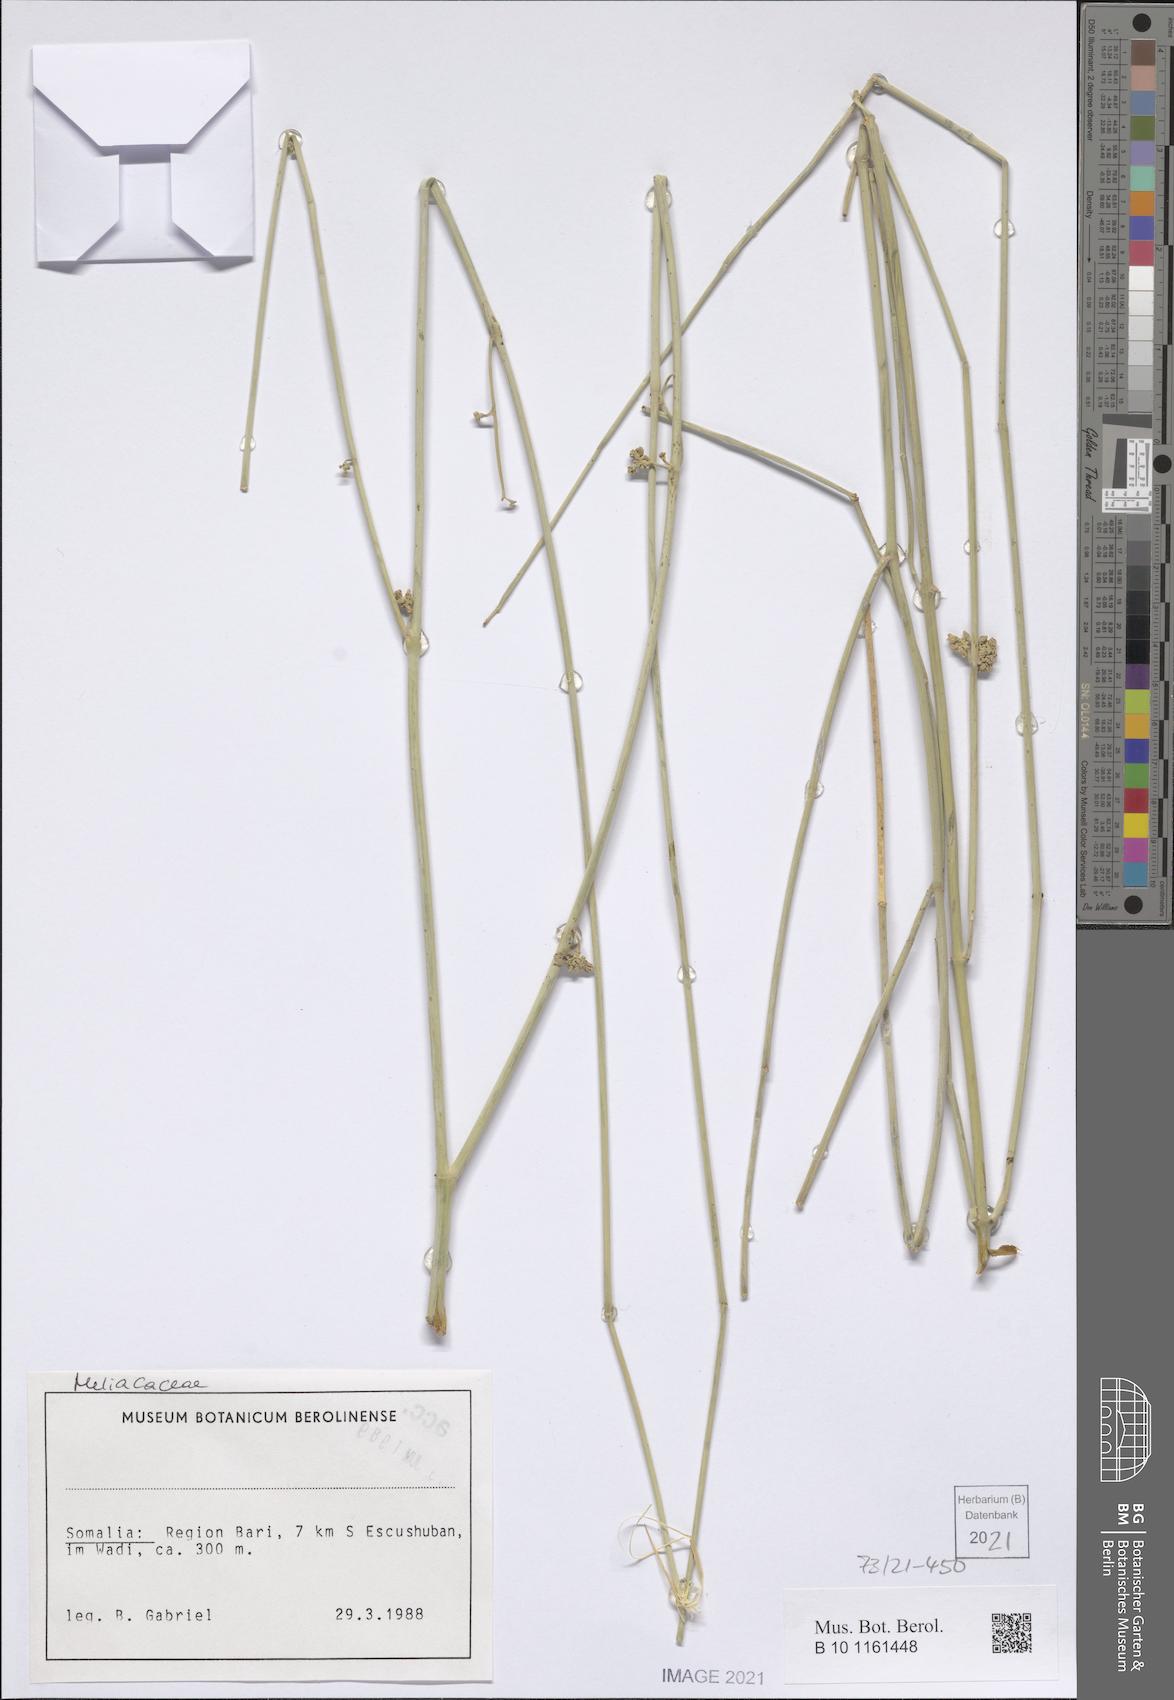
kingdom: Plantae
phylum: Tracheophyta
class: Magnoliopsida
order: Gentianales
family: Apocynaceae
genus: Cynanchum
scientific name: Cynanchum viminale
